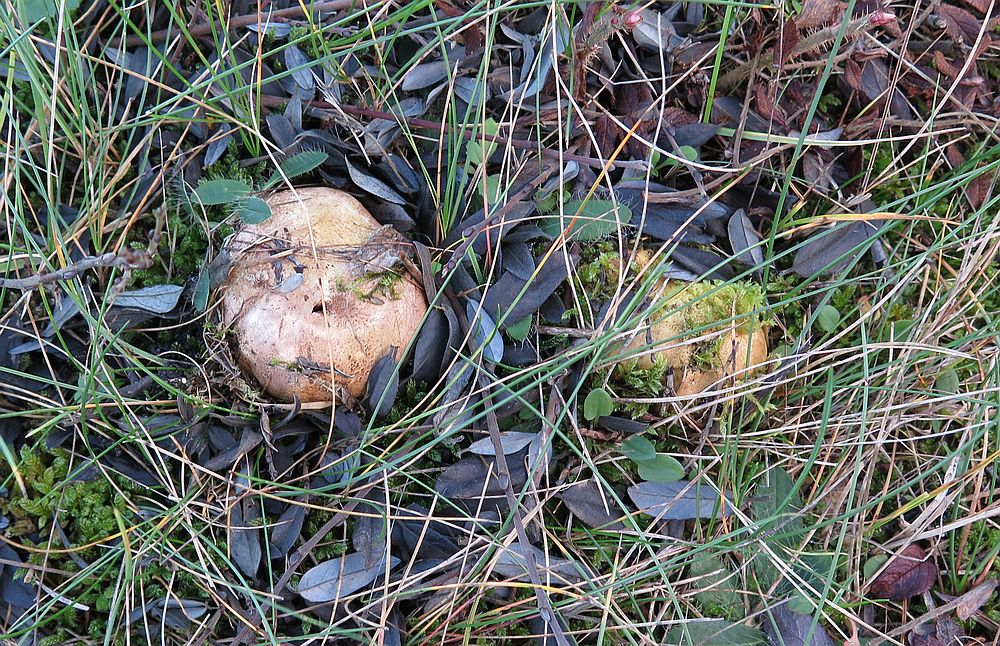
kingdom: Fungi
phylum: Basidiomycota
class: Agaricomycetes
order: Boletales
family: Sclerodermataceae
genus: Scleroderma
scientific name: Scleroderma bovista
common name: bovist-bruskbold
